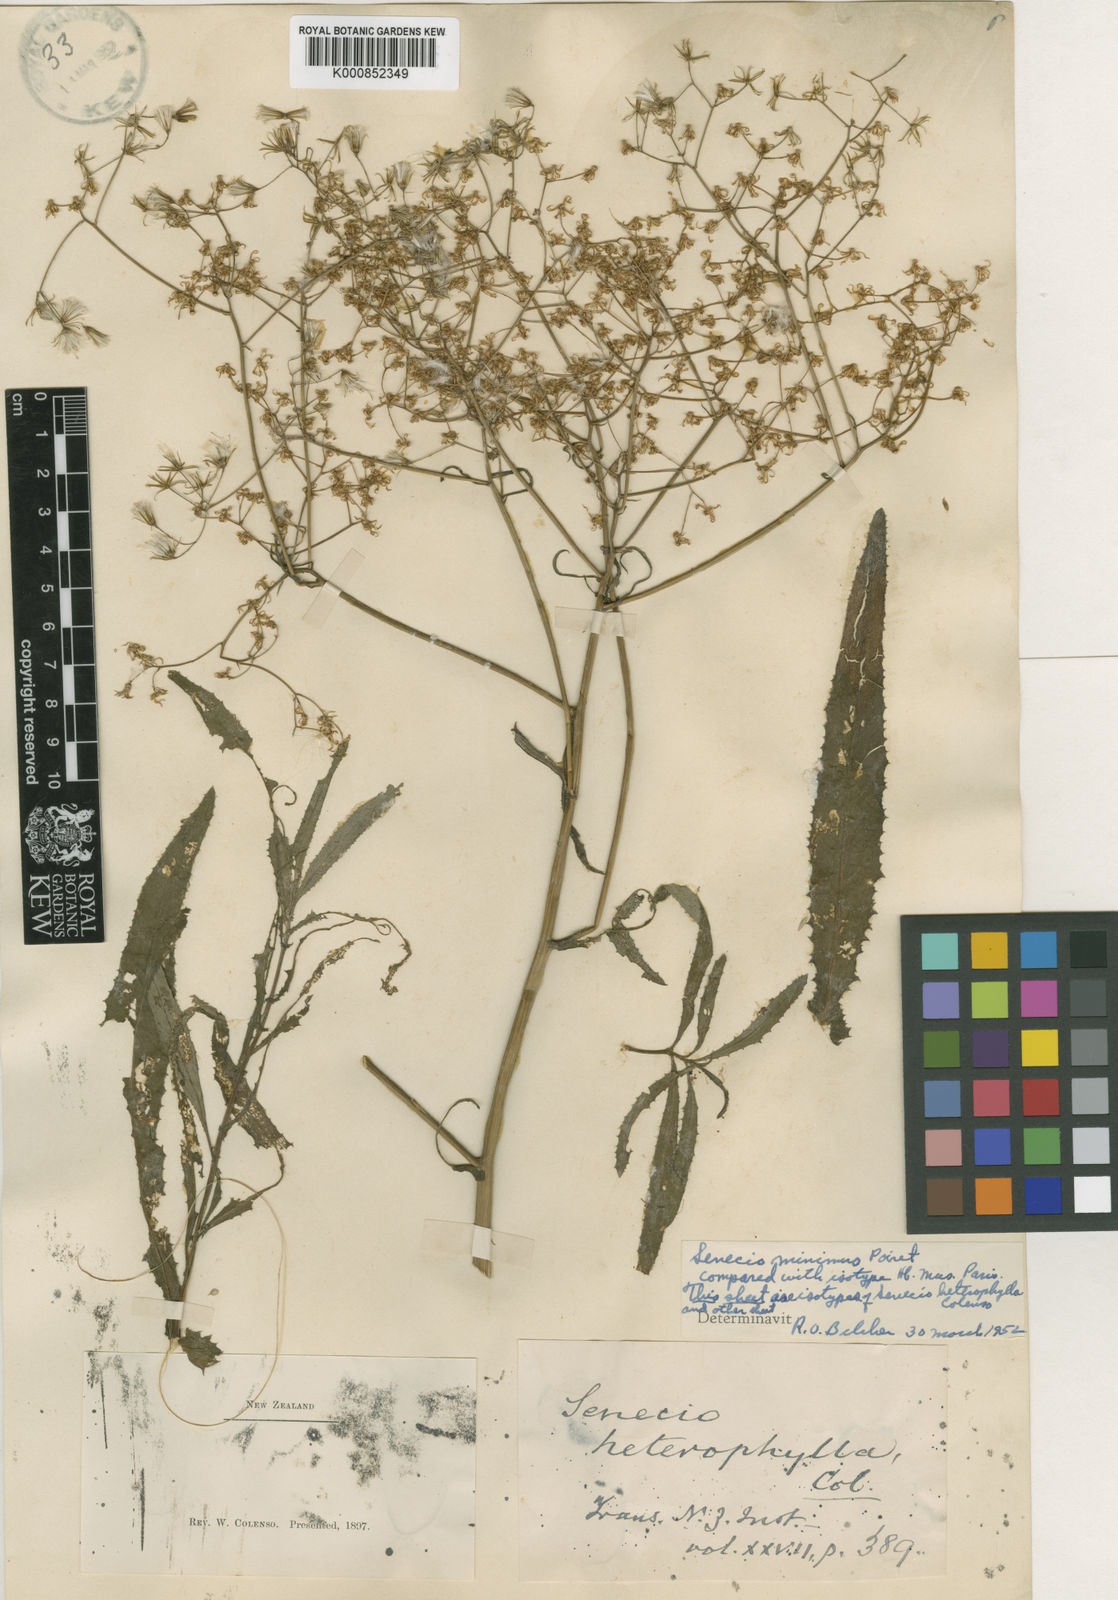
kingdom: Plantae
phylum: Tracheophyta
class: Magnoliopsida
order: Asterales
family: Asteraceae
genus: Senecio
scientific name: Senecio minimus
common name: Toothed fireweed
